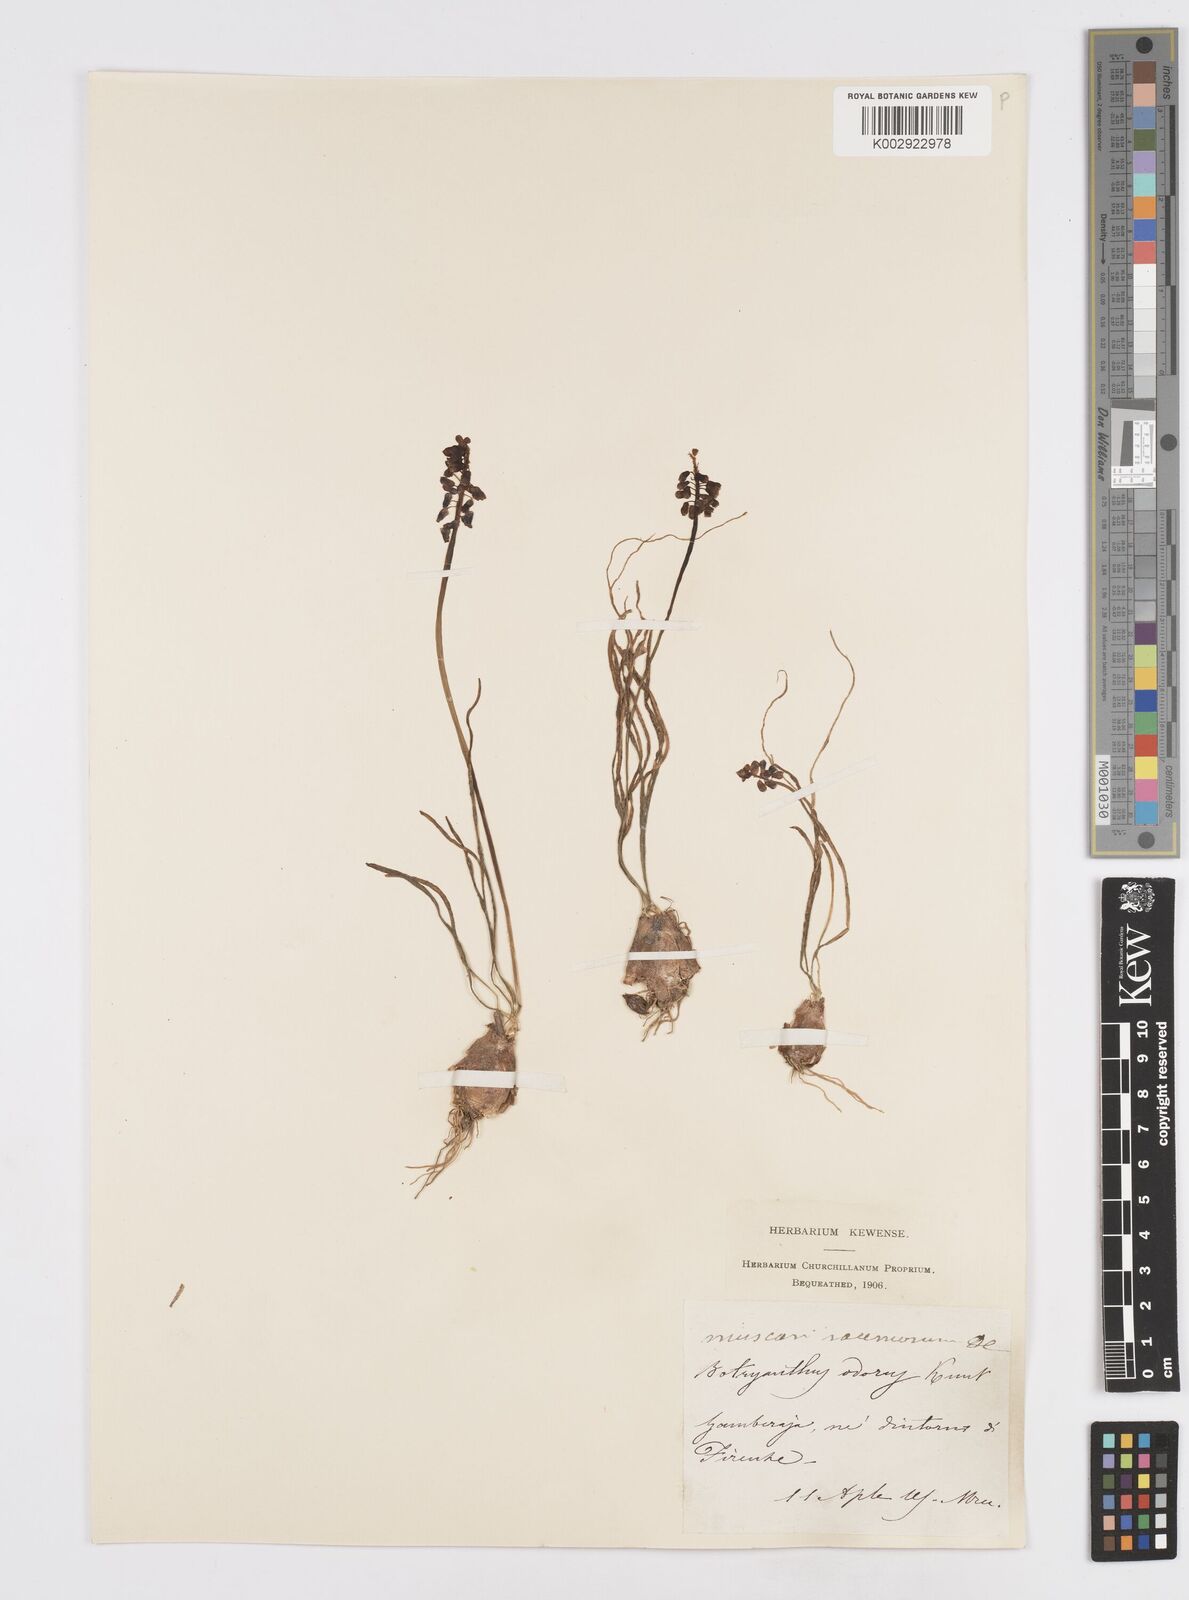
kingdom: Plantae
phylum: Tracheophyta
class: Liliopsida
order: Asparagales
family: Asparagaceae
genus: Muscarimia
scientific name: Muscarimia muscari
